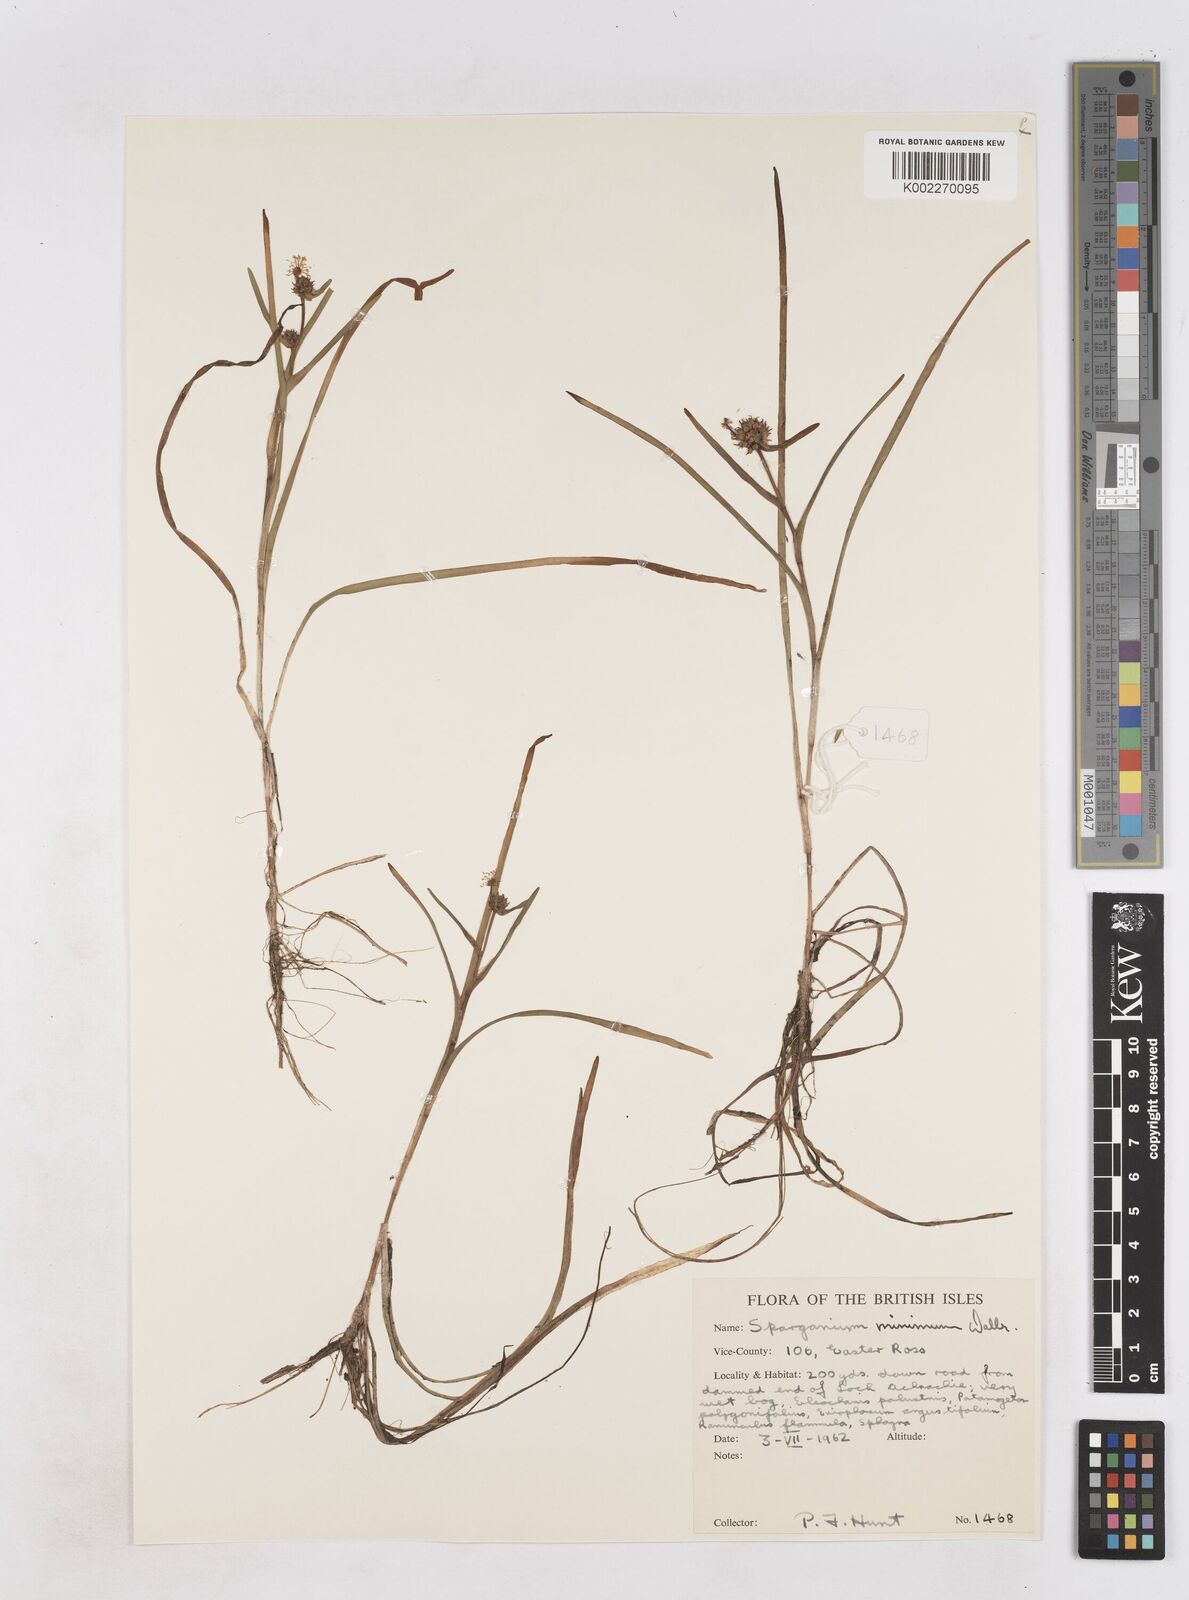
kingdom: Plantae
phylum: Tracheophyta
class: Liliopsida
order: Poales
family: Typhaceae
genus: Sparganium
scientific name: Sparganium natans
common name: Least bur-reed
